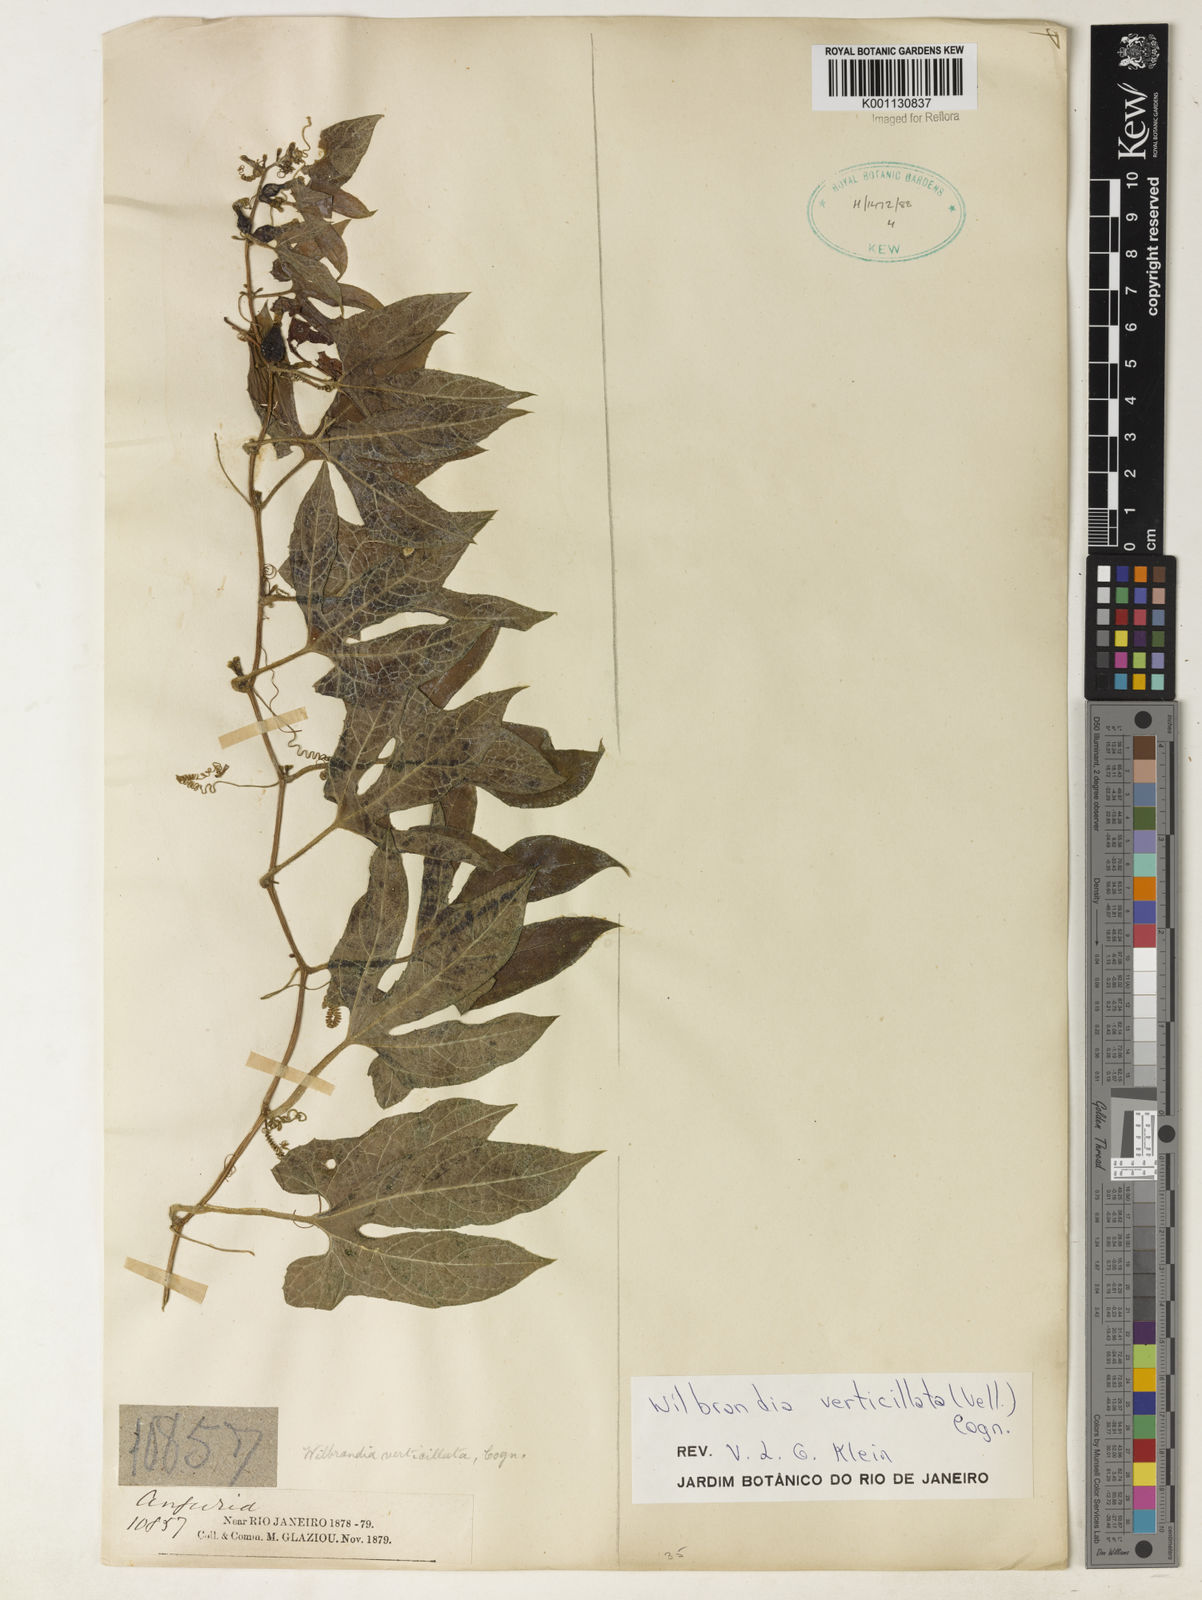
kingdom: Plantae
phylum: Tracheophyta
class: Magnoliopsida
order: Cucurbitales
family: Cucurbitaceae
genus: Wilbrandia
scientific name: Wilbrandia verticillata
